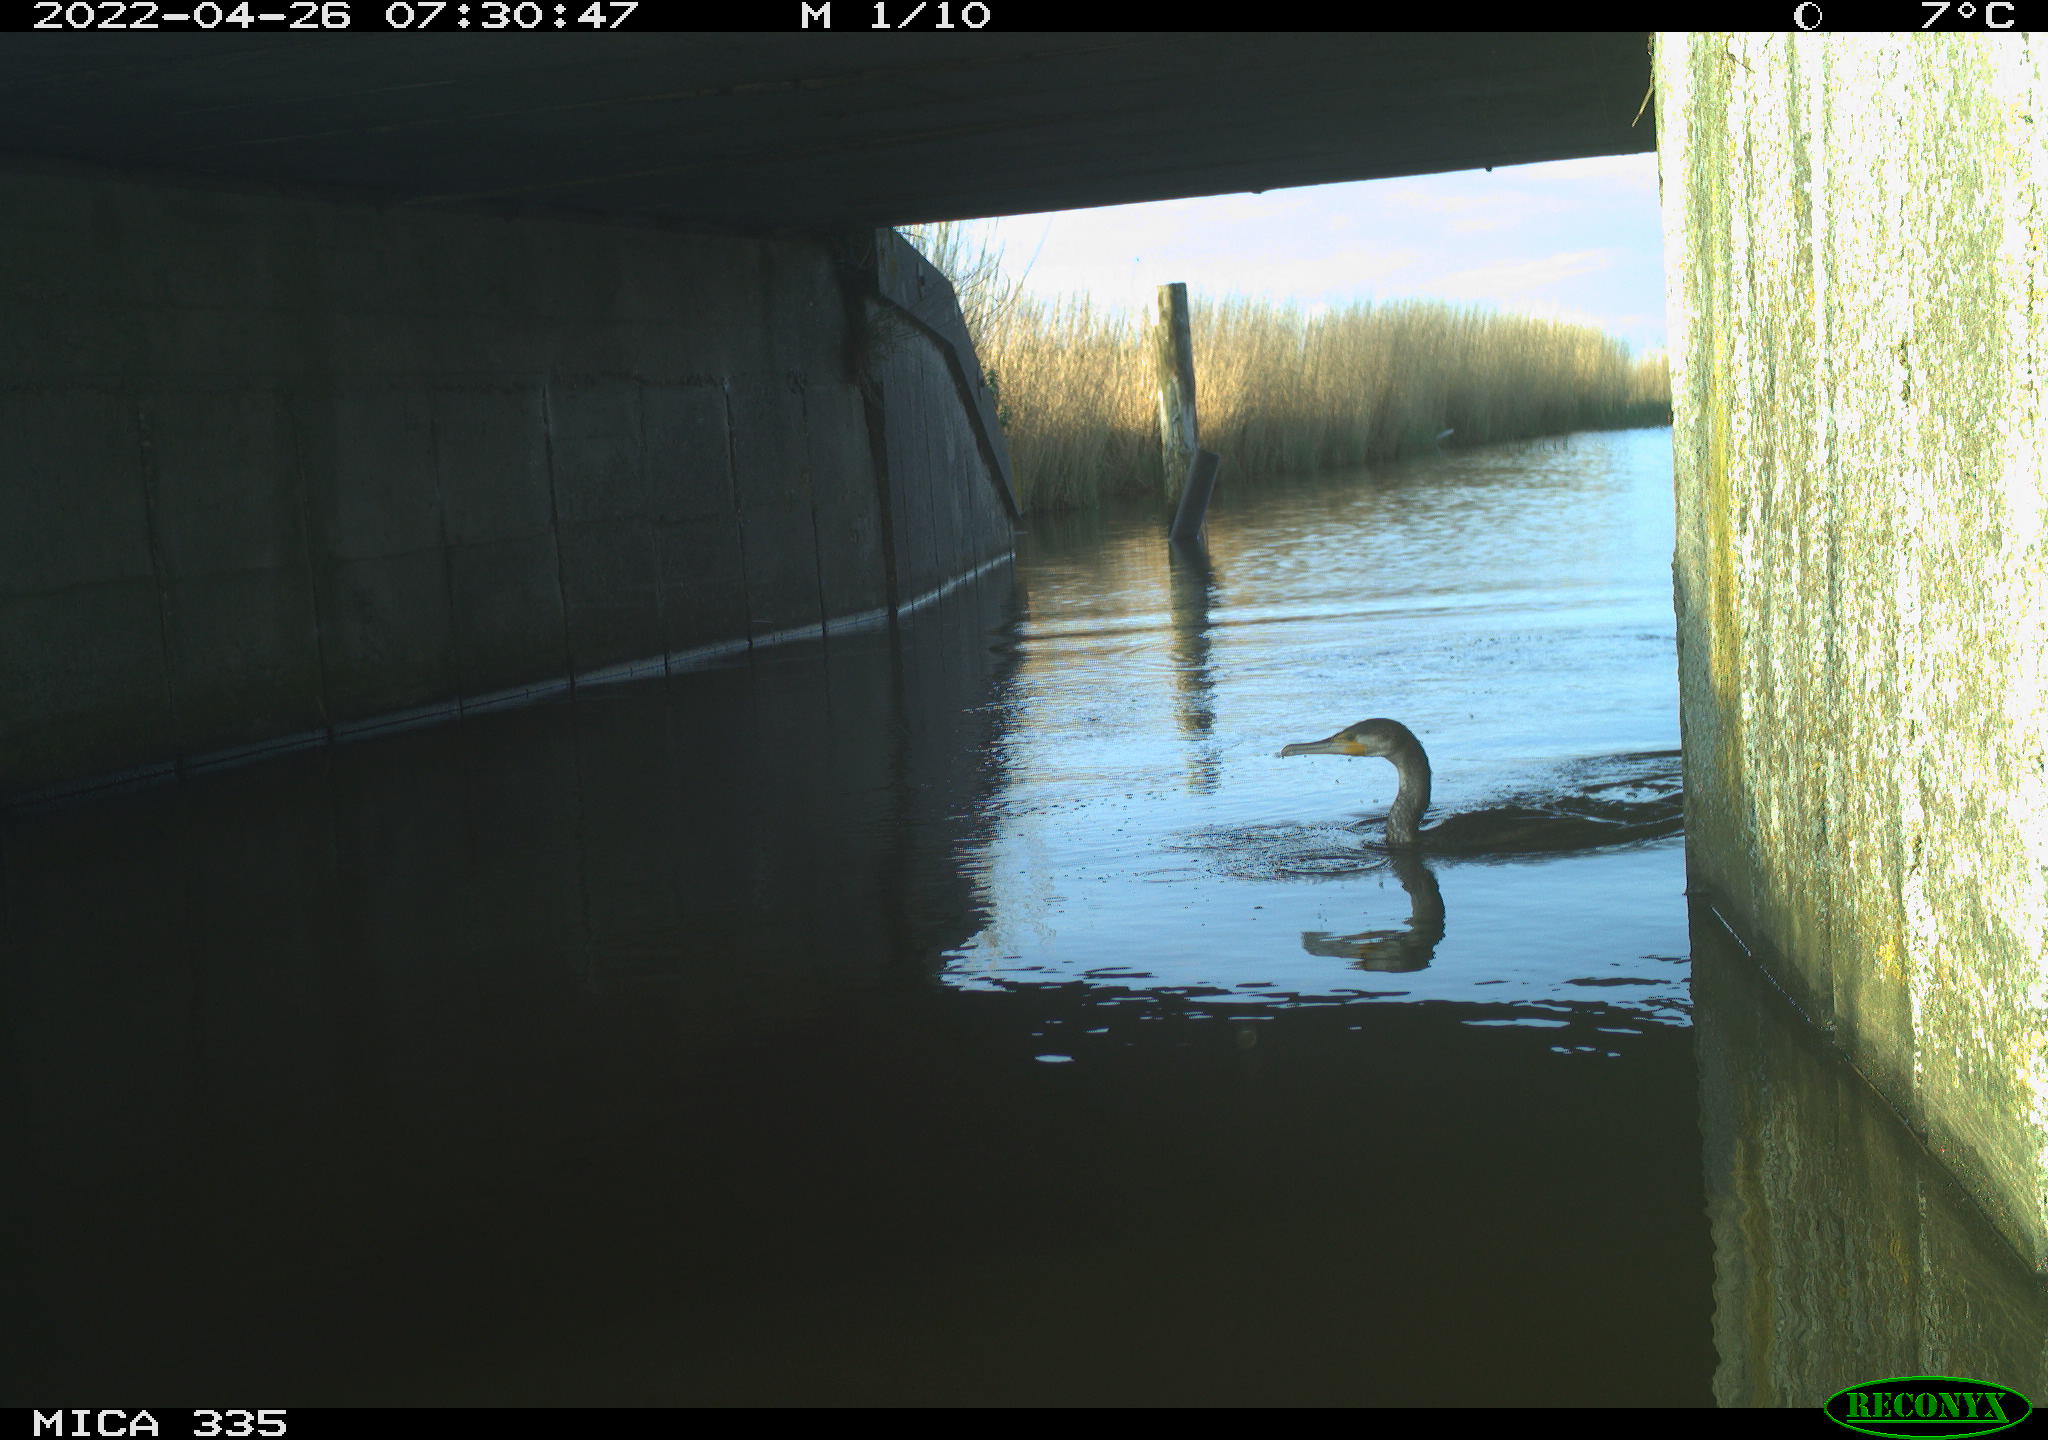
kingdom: Animalia
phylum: Chordata
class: Aves
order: Suliformes
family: Phalacrocoracidae
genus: Phalacrocorax
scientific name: Phalacrocorax carbo
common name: Great cormorant
